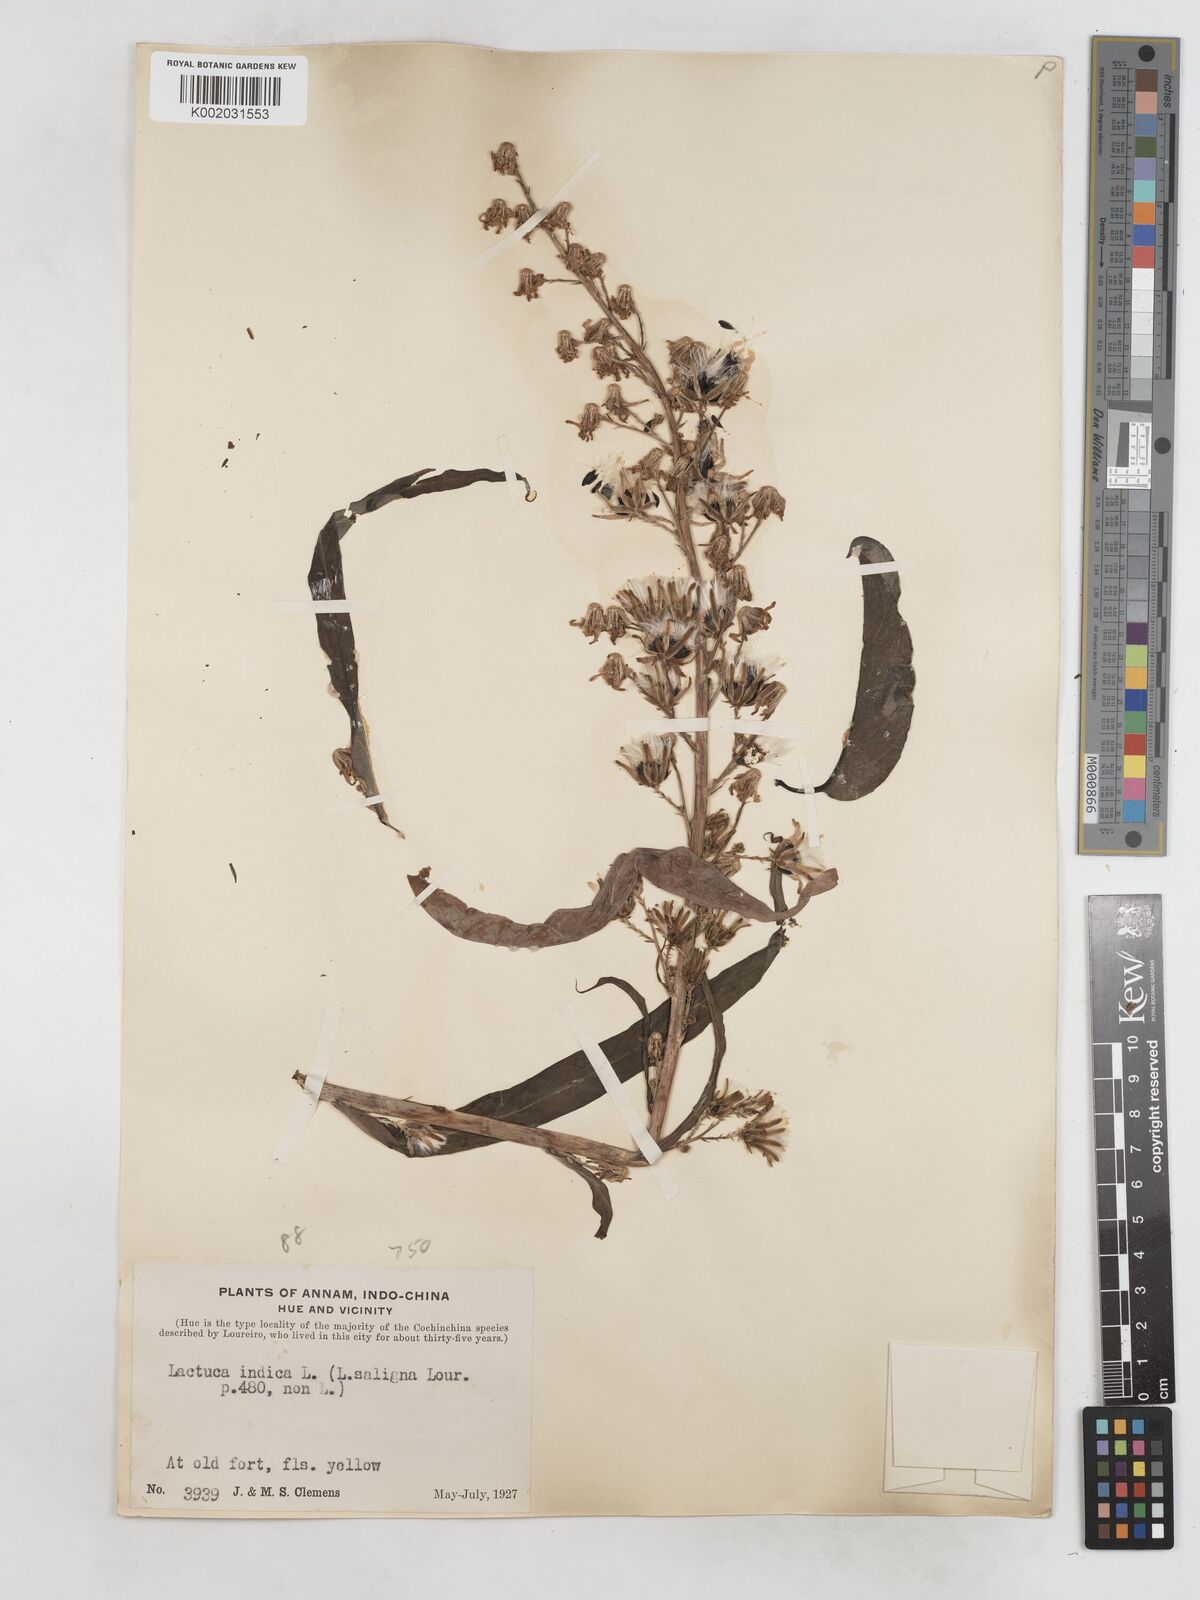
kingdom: Plantae
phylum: Tracheophyta
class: Magnoliopsida
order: Asterales
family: Asteraceae
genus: Lactuca
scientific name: Lactuca indica
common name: Wild lettuce
